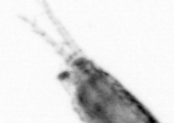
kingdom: Animalia
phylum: Arthropoda
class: Copepoda
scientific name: Copepoda
